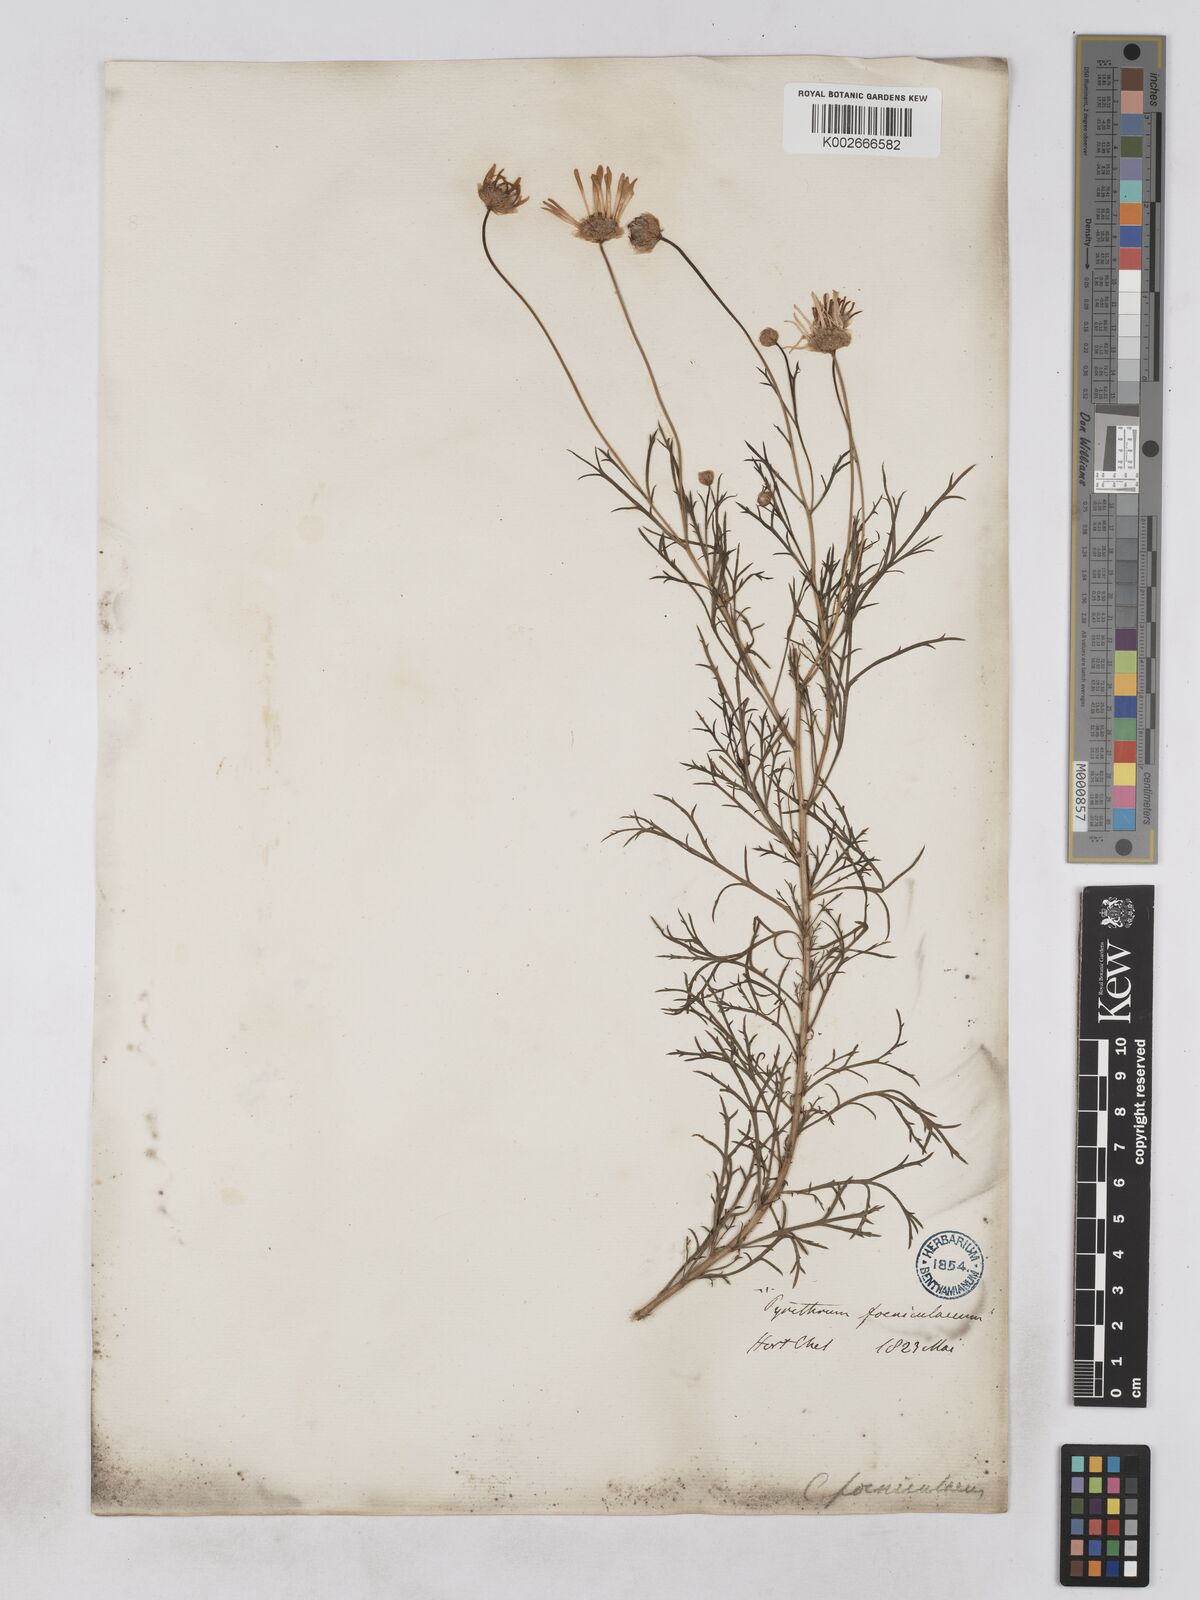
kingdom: Plantae
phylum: Tracheophyta
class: Magnoliopsida
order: Asterales
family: Asteraceae
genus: Argyranthemum
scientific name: Argyranthemum frutescens
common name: Paris daisy
